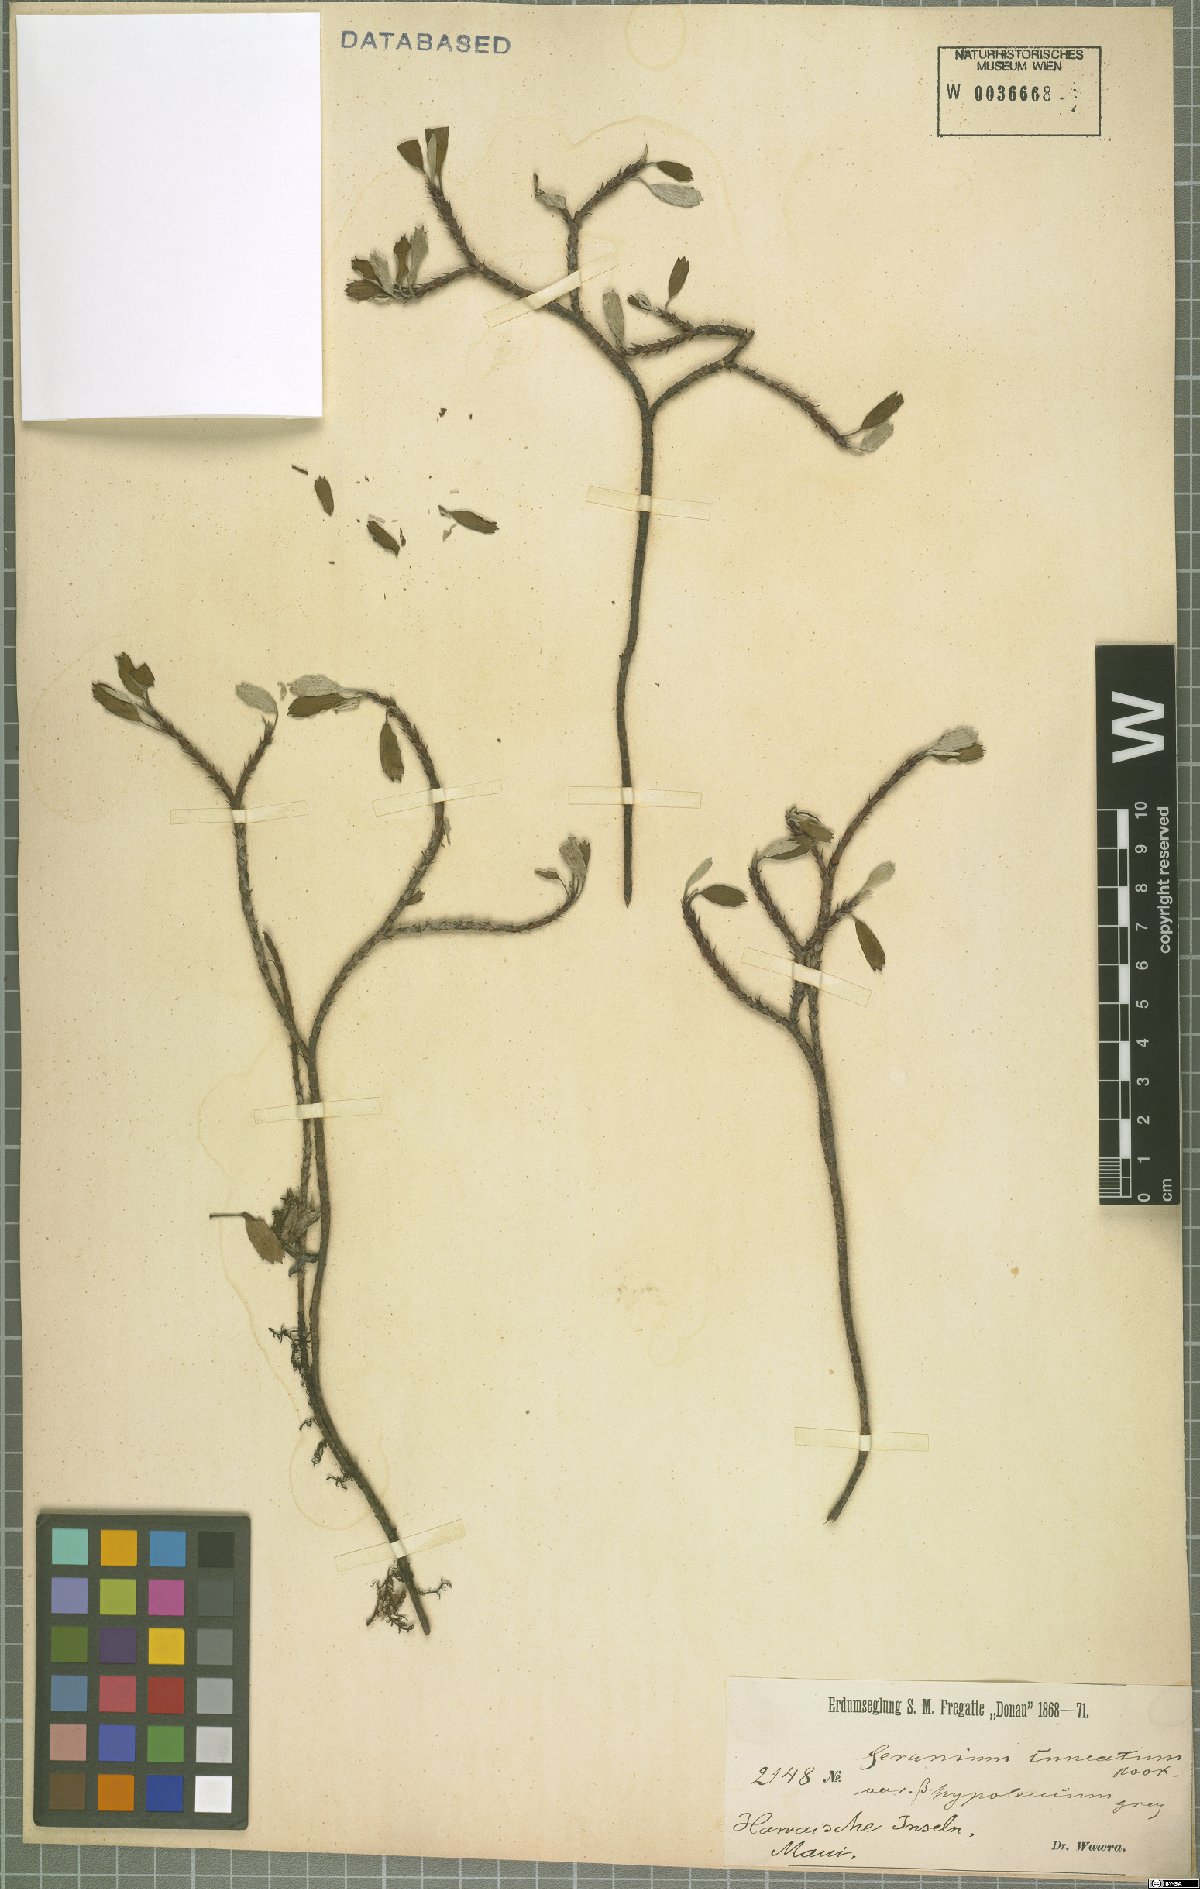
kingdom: Plantae
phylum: Tracheophyta
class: Magnoliopsida
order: Geraniales
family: Geraniaceae
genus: Geranium
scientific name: Geranium cuneatum
